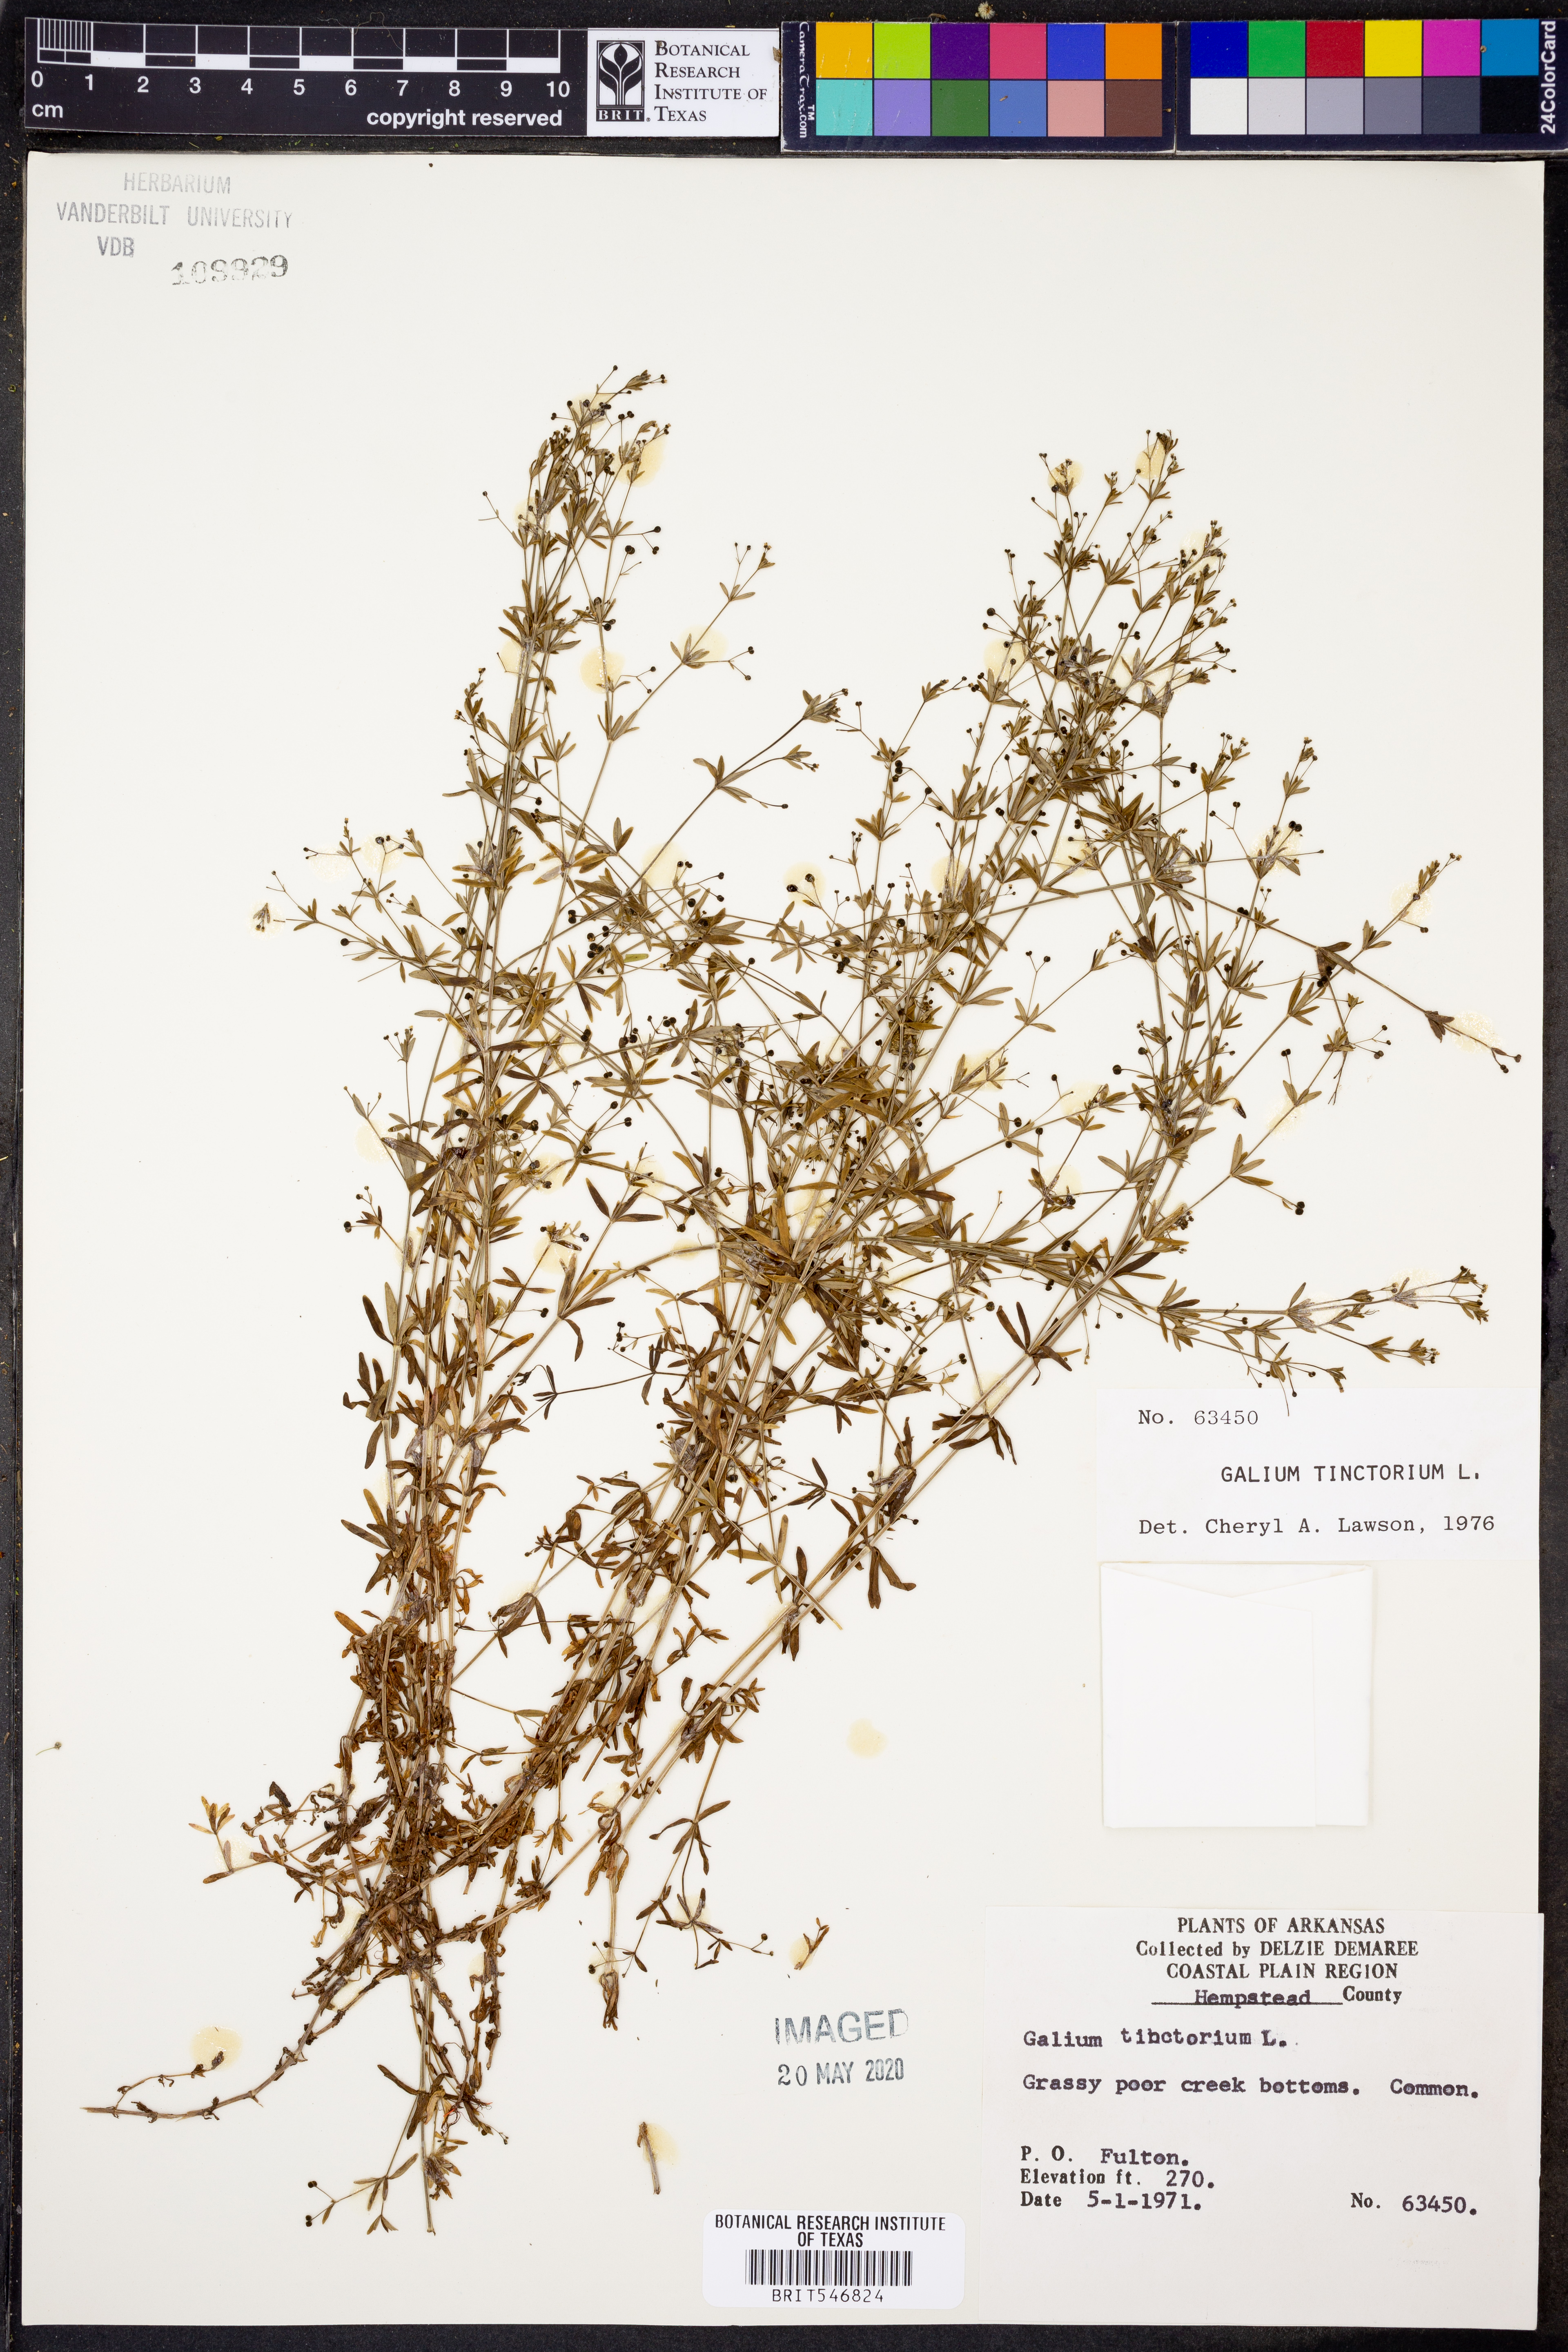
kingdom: Plantae
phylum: Tracheophyta
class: Magnoliopsida
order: Gentianales
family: Rubiaceae
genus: Asperula
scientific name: Asperula tinctoria
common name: Dyer's woodruff
